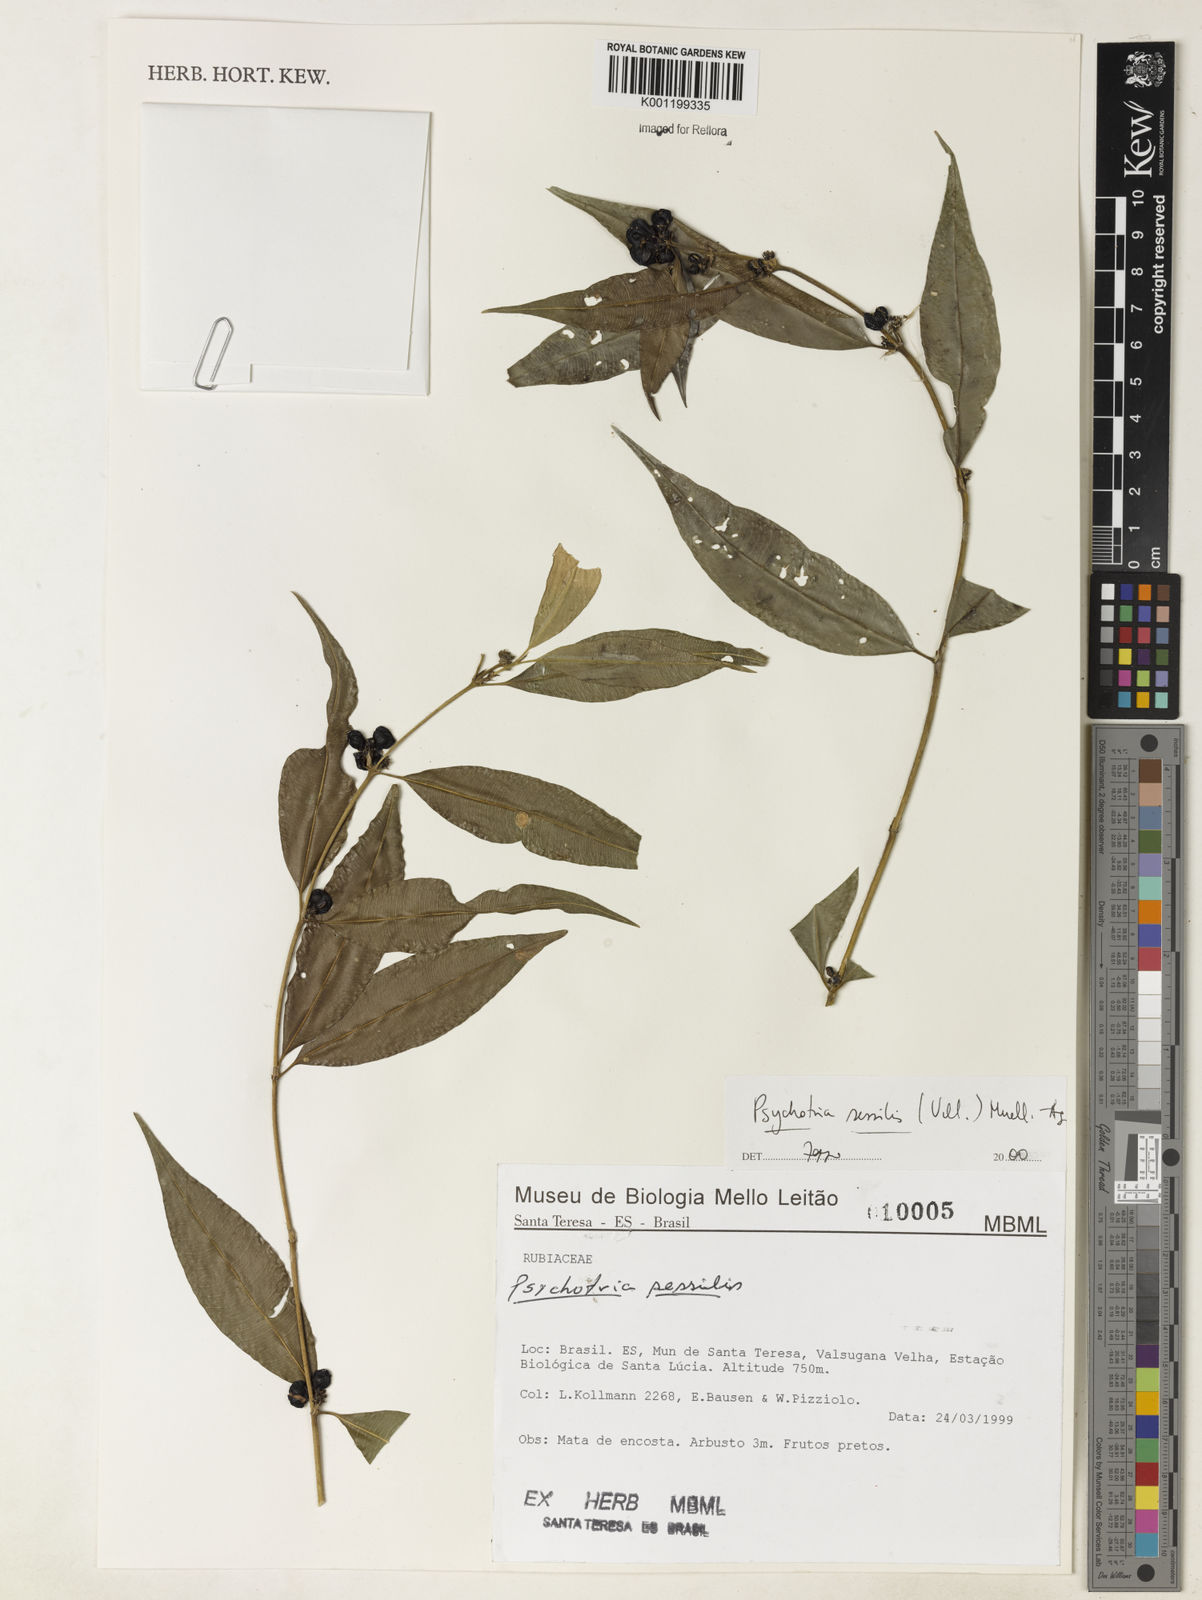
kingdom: Plantae
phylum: Tracheophyta
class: Magnoliopsida
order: Gentianales
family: Rubiaceae
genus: Rudgea
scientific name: Rudgea sessilis
